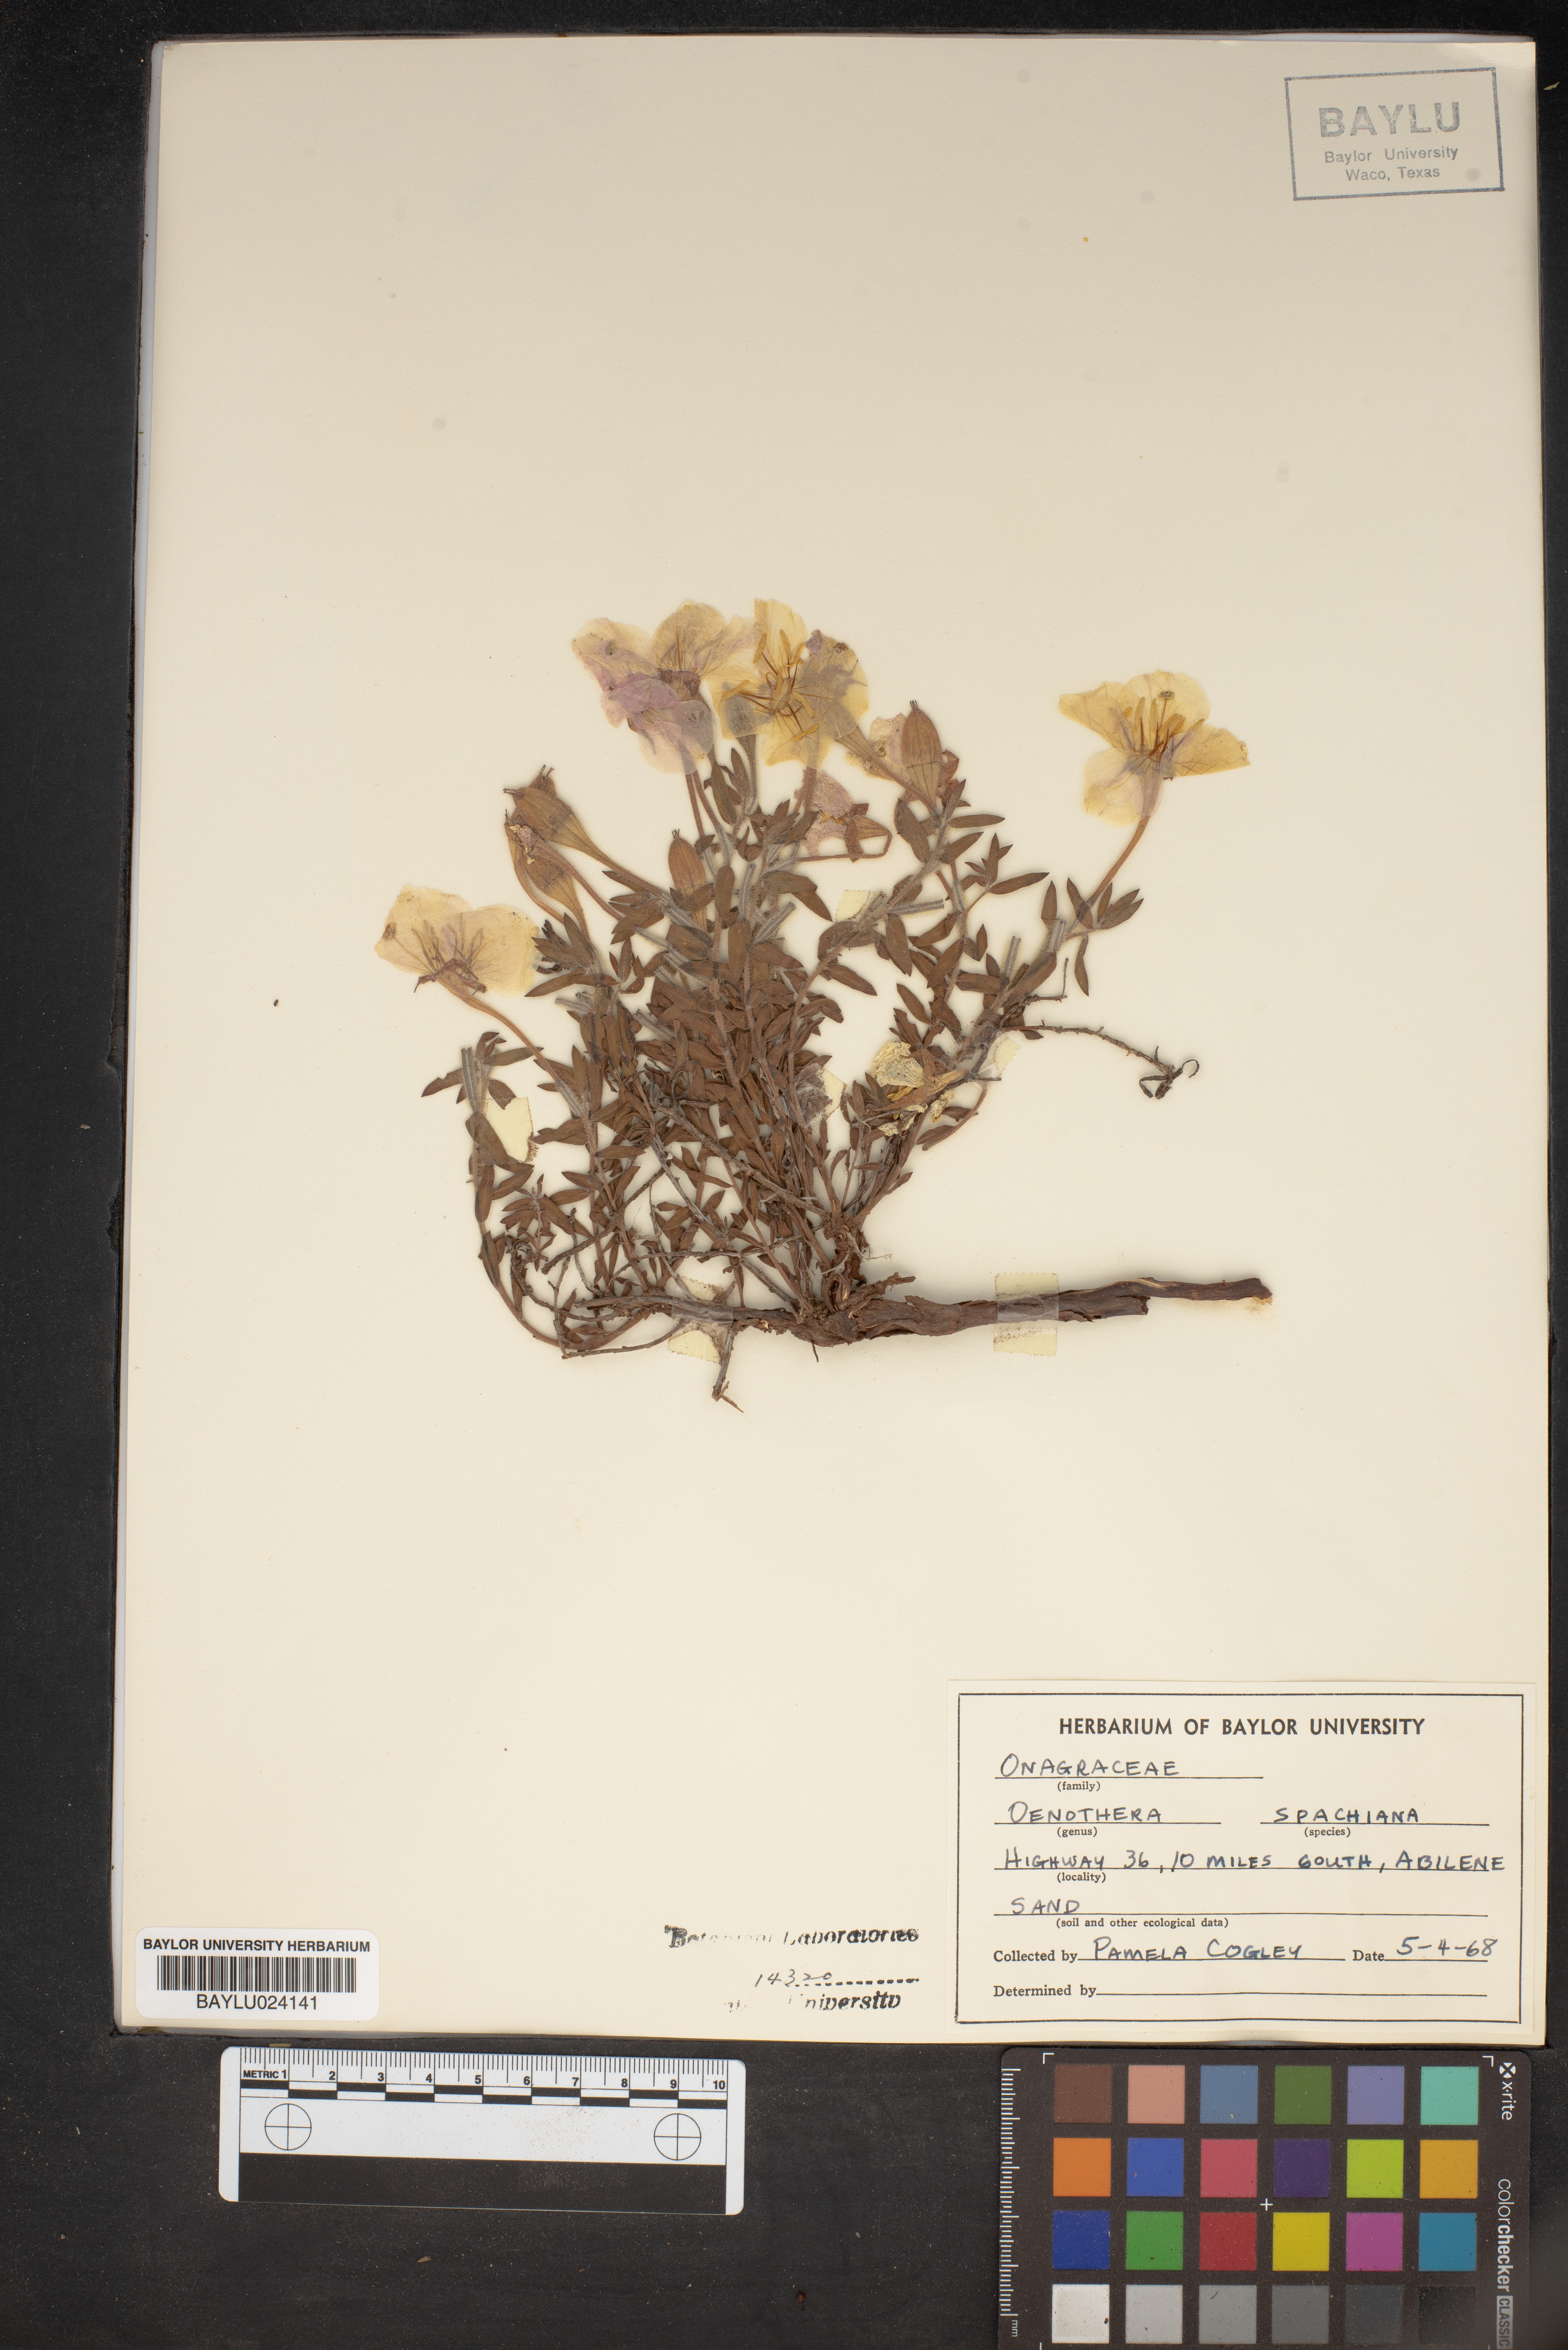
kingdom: Plantae
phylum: Tracheophyta
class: Magnoliopsida
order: Myrtales
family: Onagraceae
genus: Oenothera
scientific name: Oenothera spachiana
